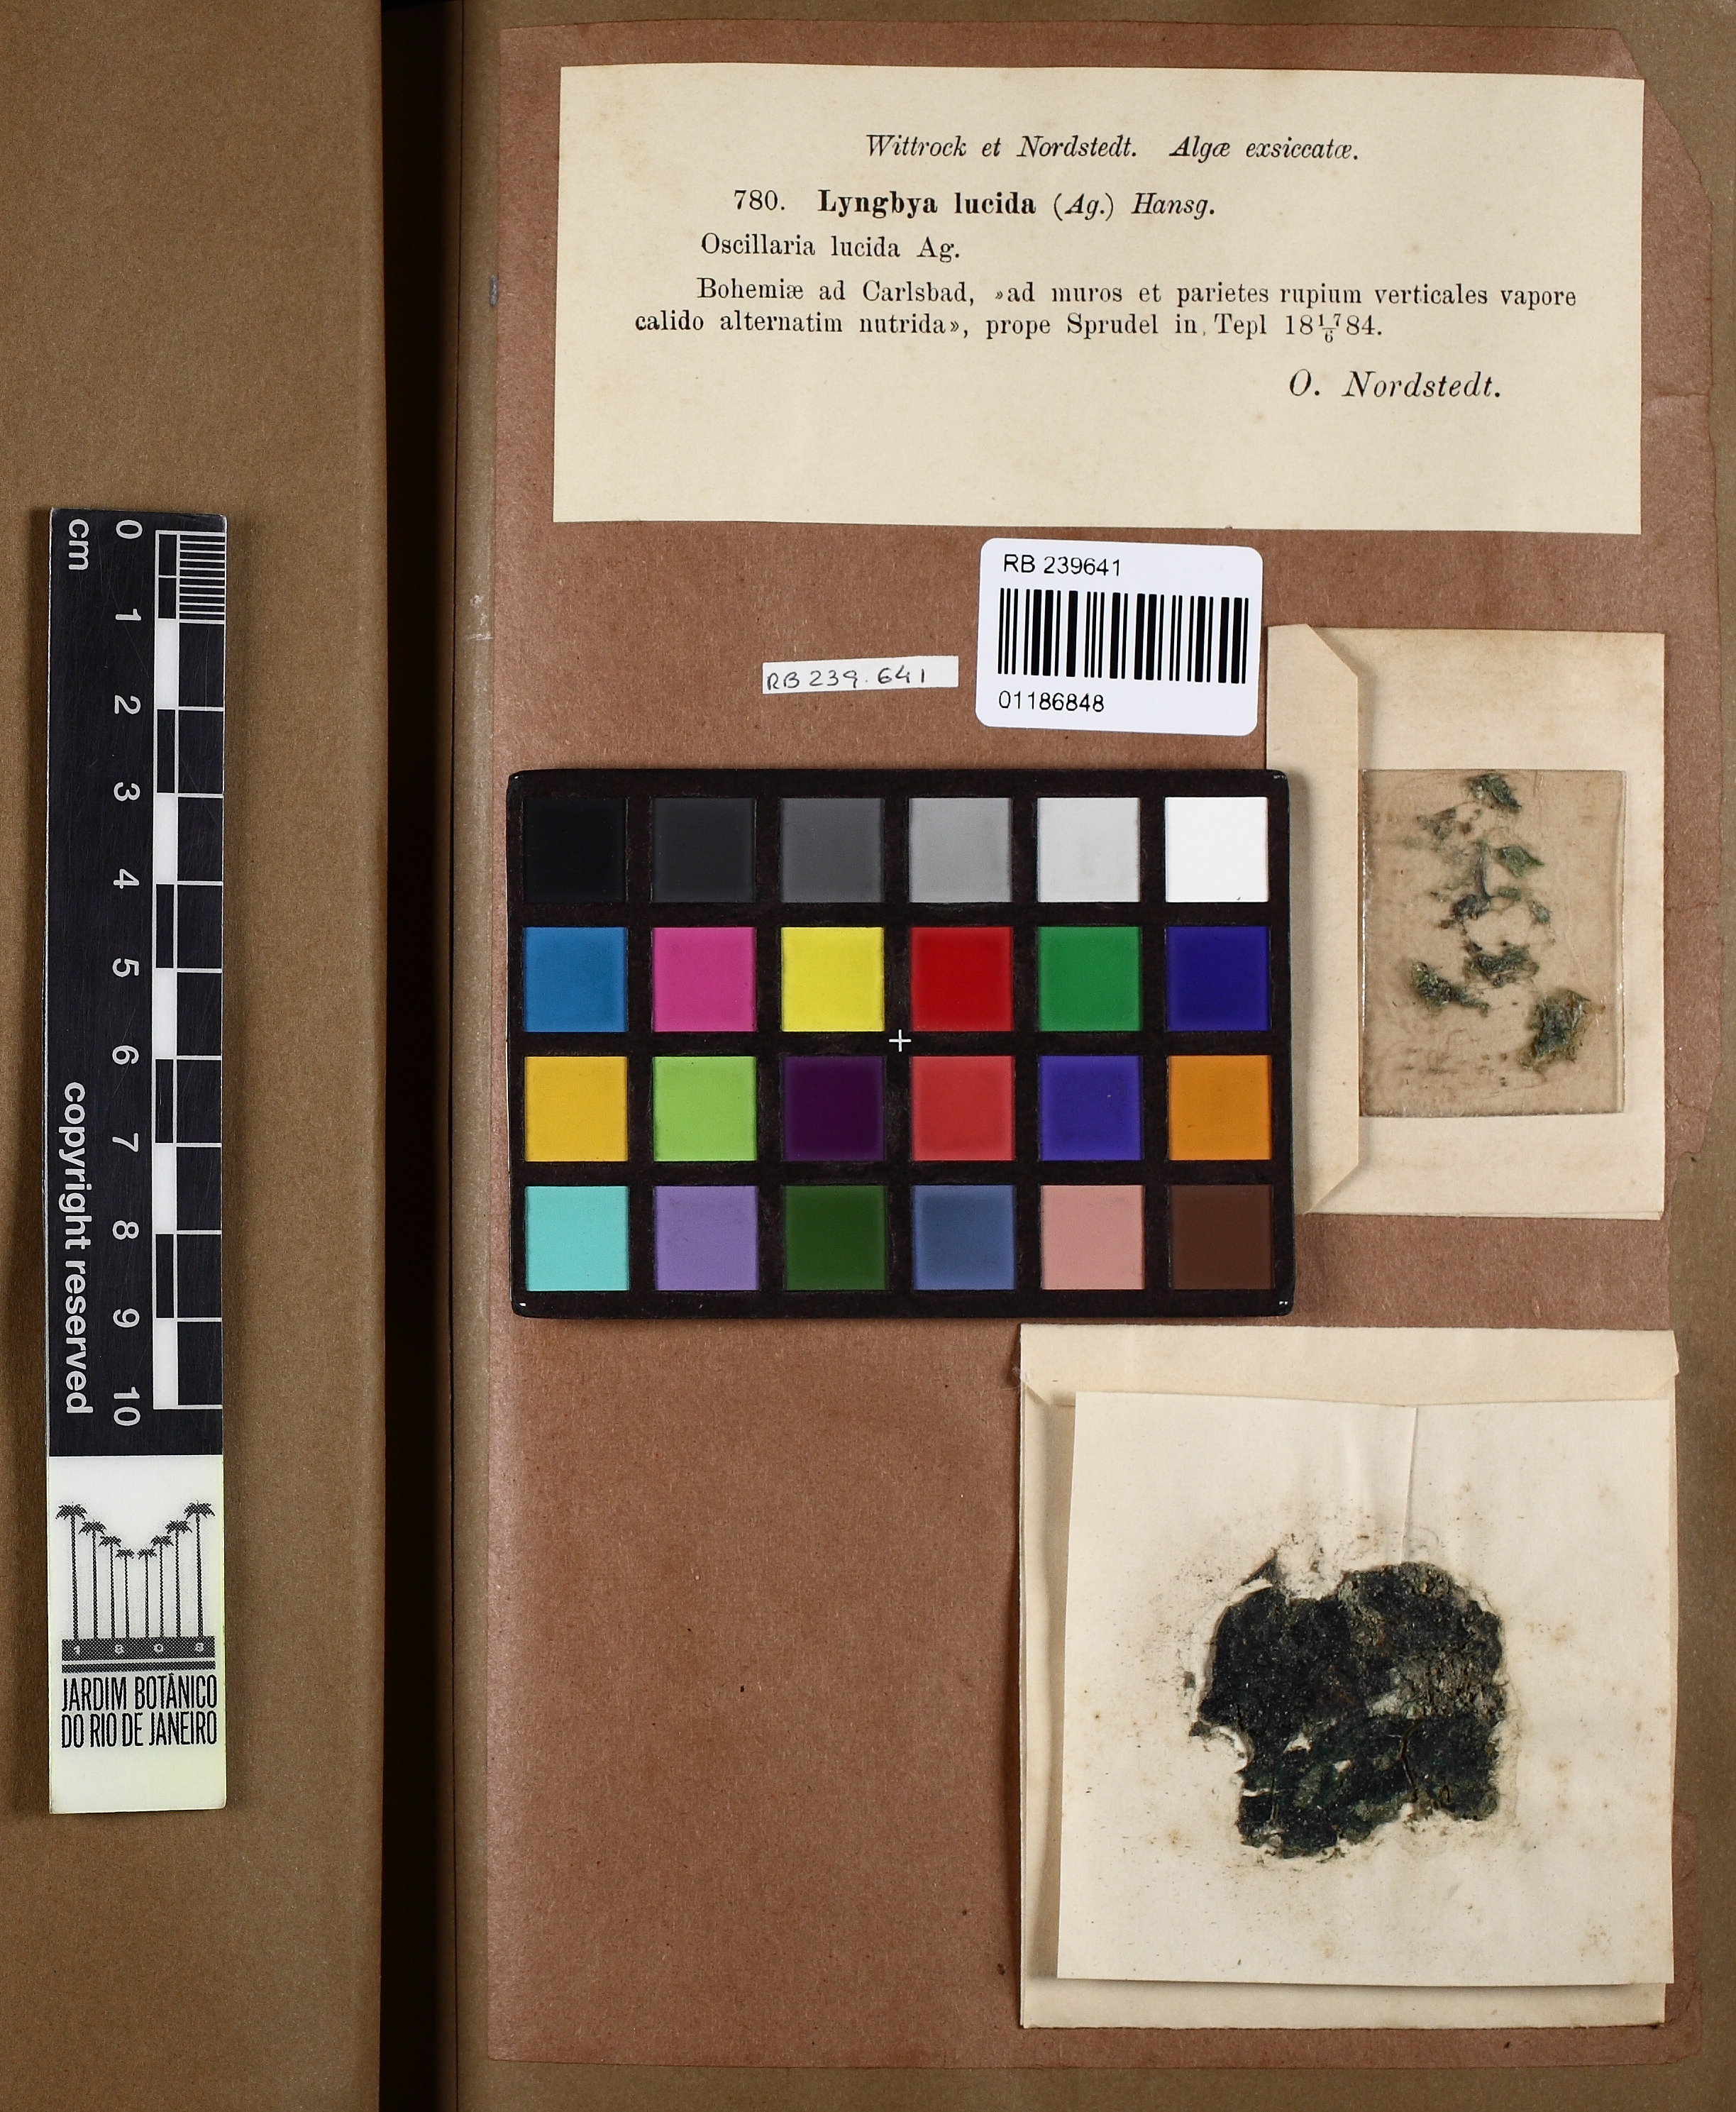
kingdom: Bacteria
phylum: Cyanobacteria
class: Cyanobacteriia
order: Cyanobacteriales
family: Oscillatoriaceae
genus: Phormidium
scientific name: Phormidium luridum
